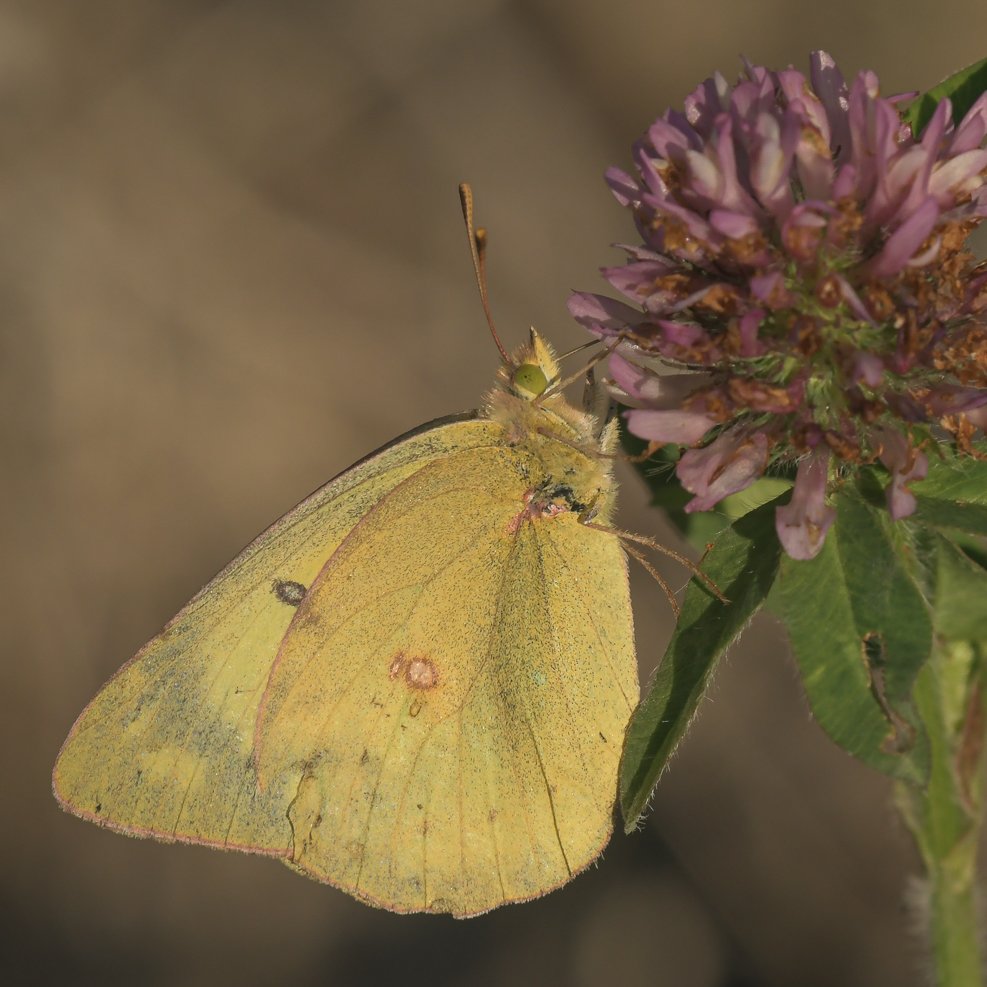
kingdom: Animalia
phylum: Arthropoda
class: Insecta
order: Lepidoptera
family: Pieridae
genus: Colias
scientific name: Colias philodice
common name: Clouded Sulphur
